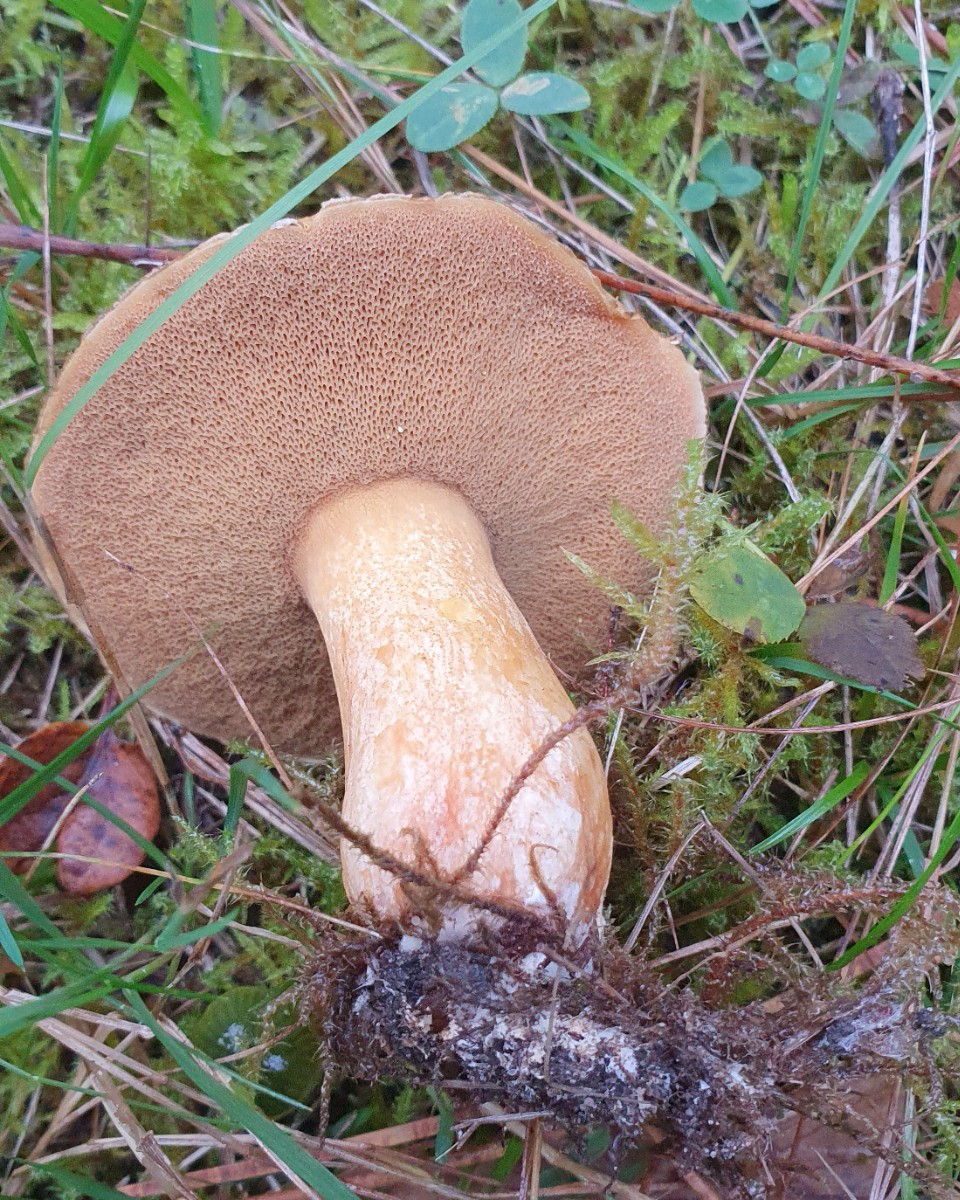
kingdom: Fungi
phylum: Basidiomycota
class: Agaricomycetes
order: Boletales
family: Suillaceae
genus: Suillus
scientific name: Suillus variegatus
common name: broget slimrørhat
